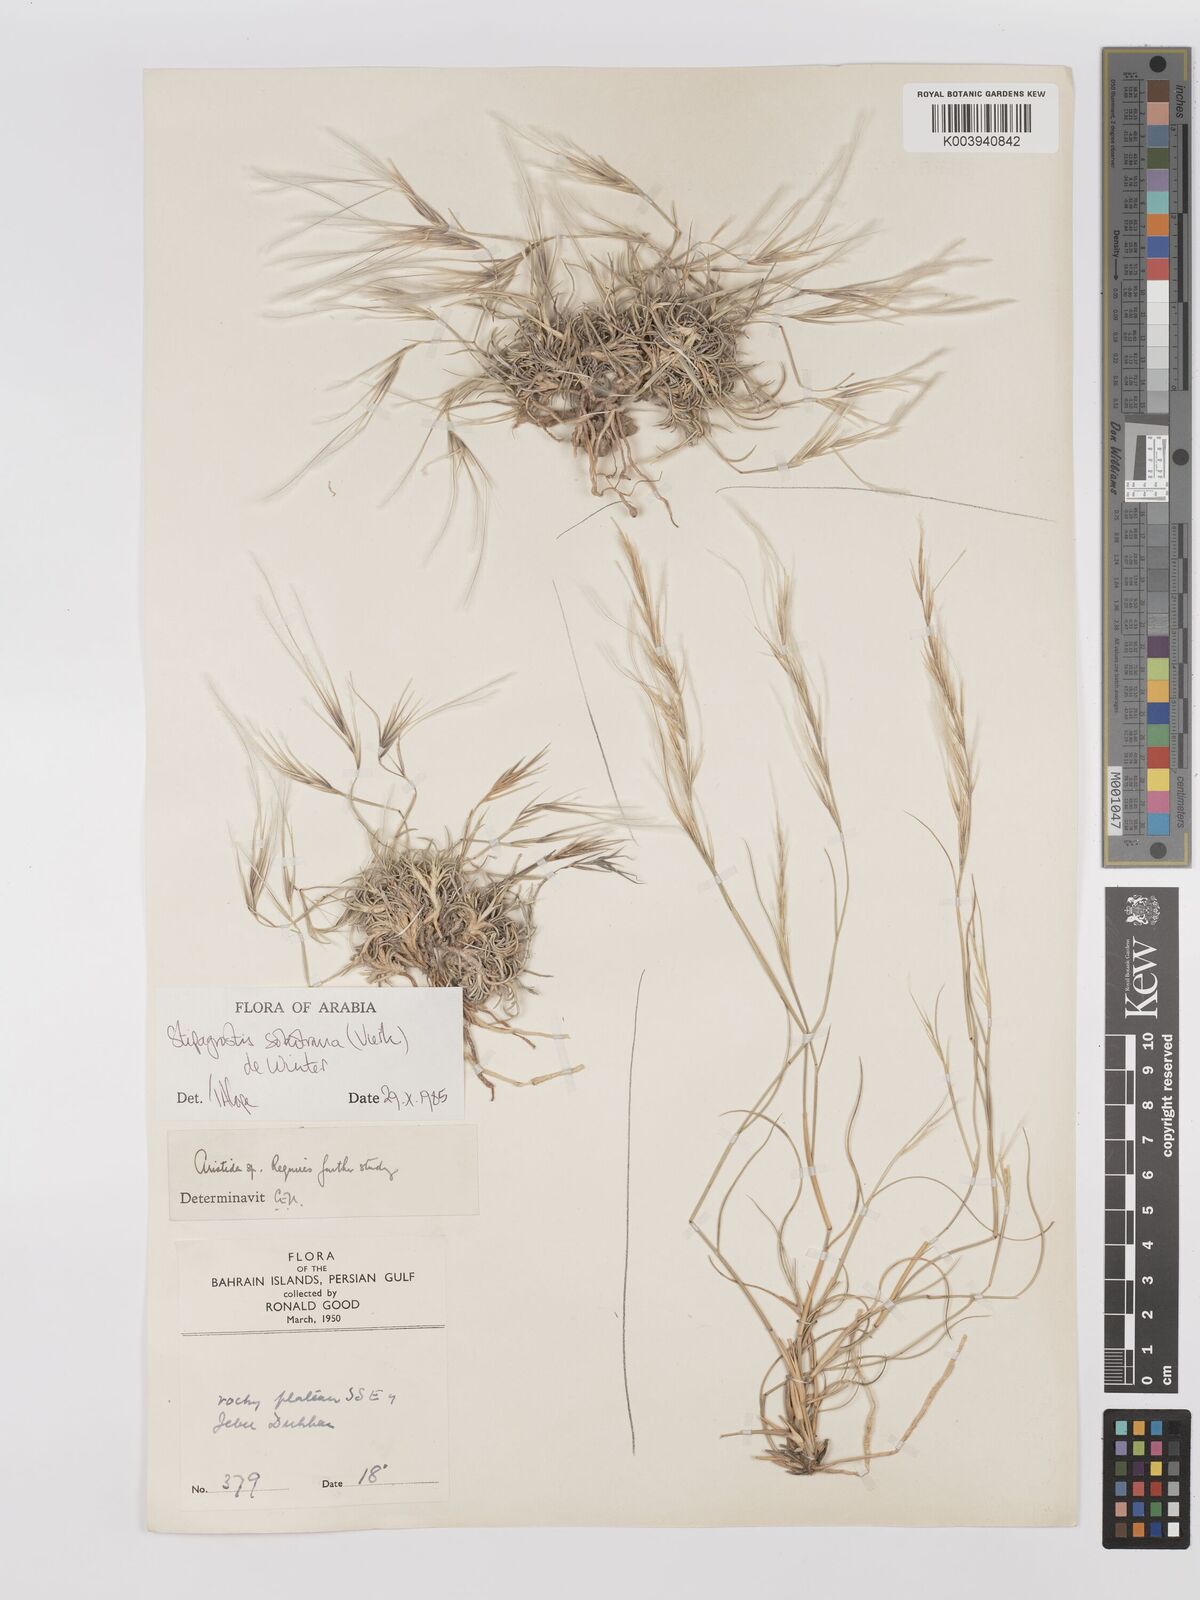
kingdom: Plantae
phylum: Tracheophyta
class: Liliopsida
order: Poales
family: Poaceae
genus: Stipagrostis
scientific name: Stipagrostis sokotrana
